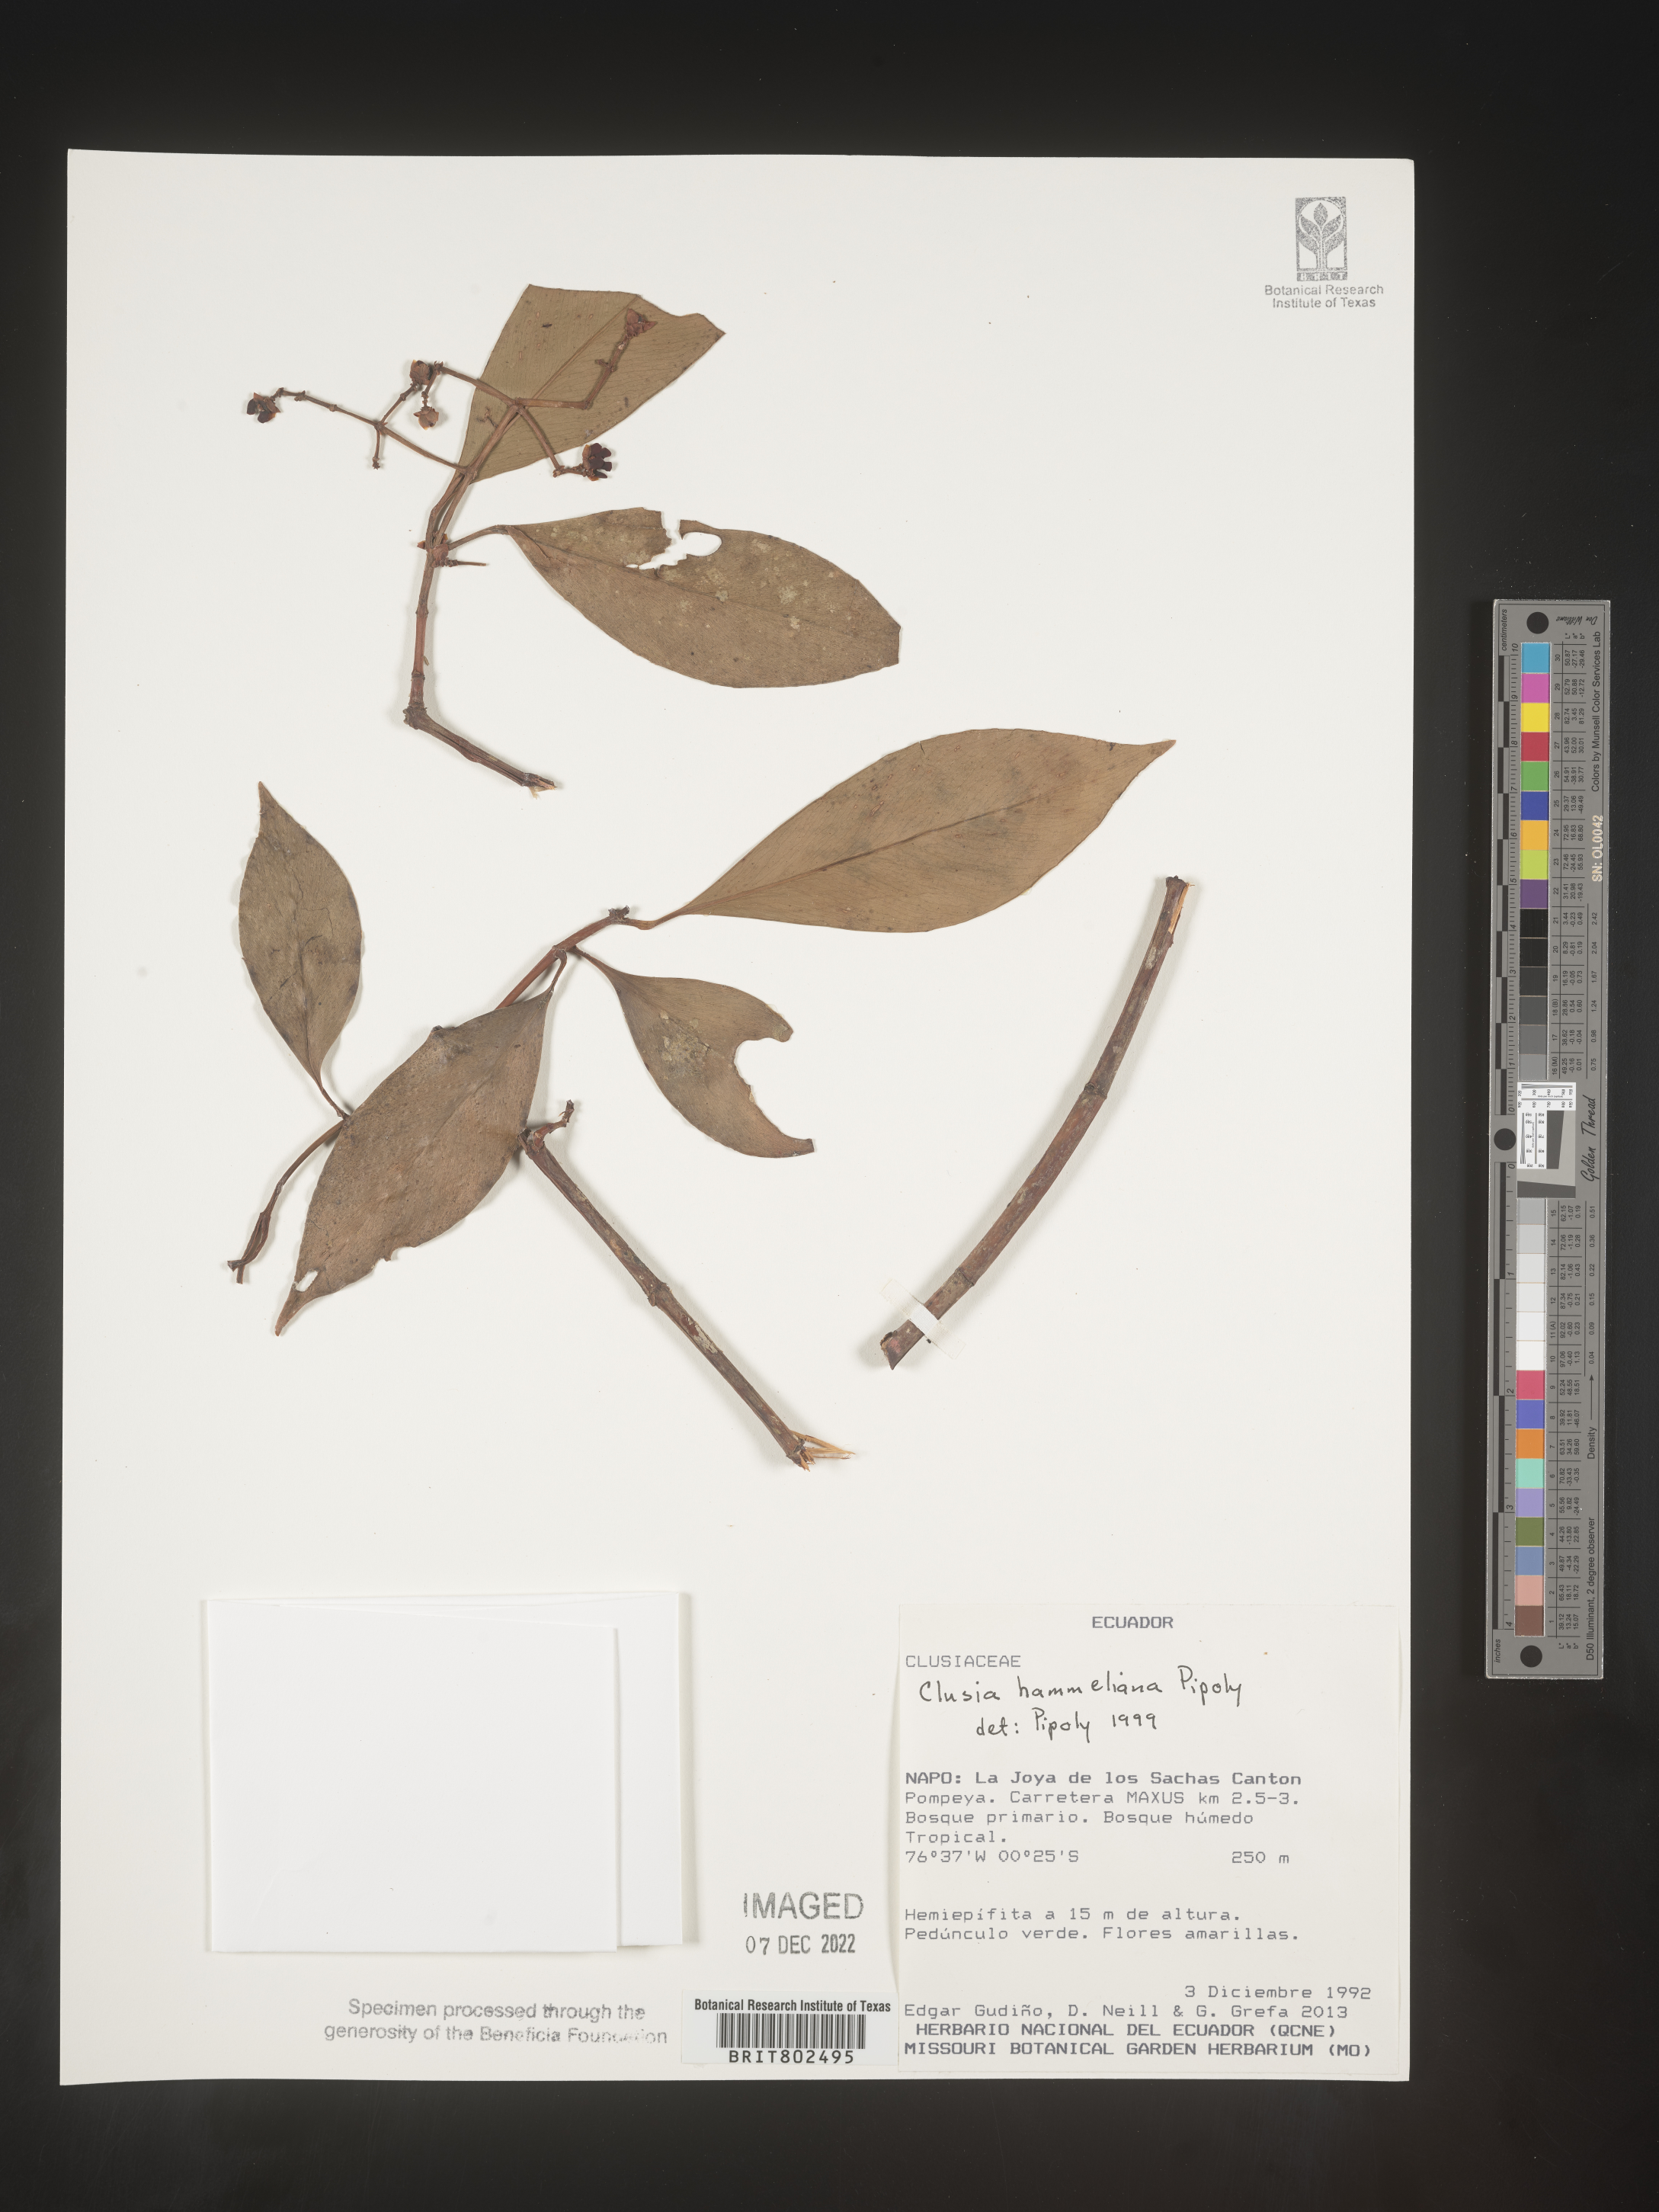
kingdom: Plantae
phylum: Tracheophyta
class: Magnoliopsida
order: Malpighiales
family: Clusiaceae
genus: Clusia
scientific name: Clusia hammeliana
